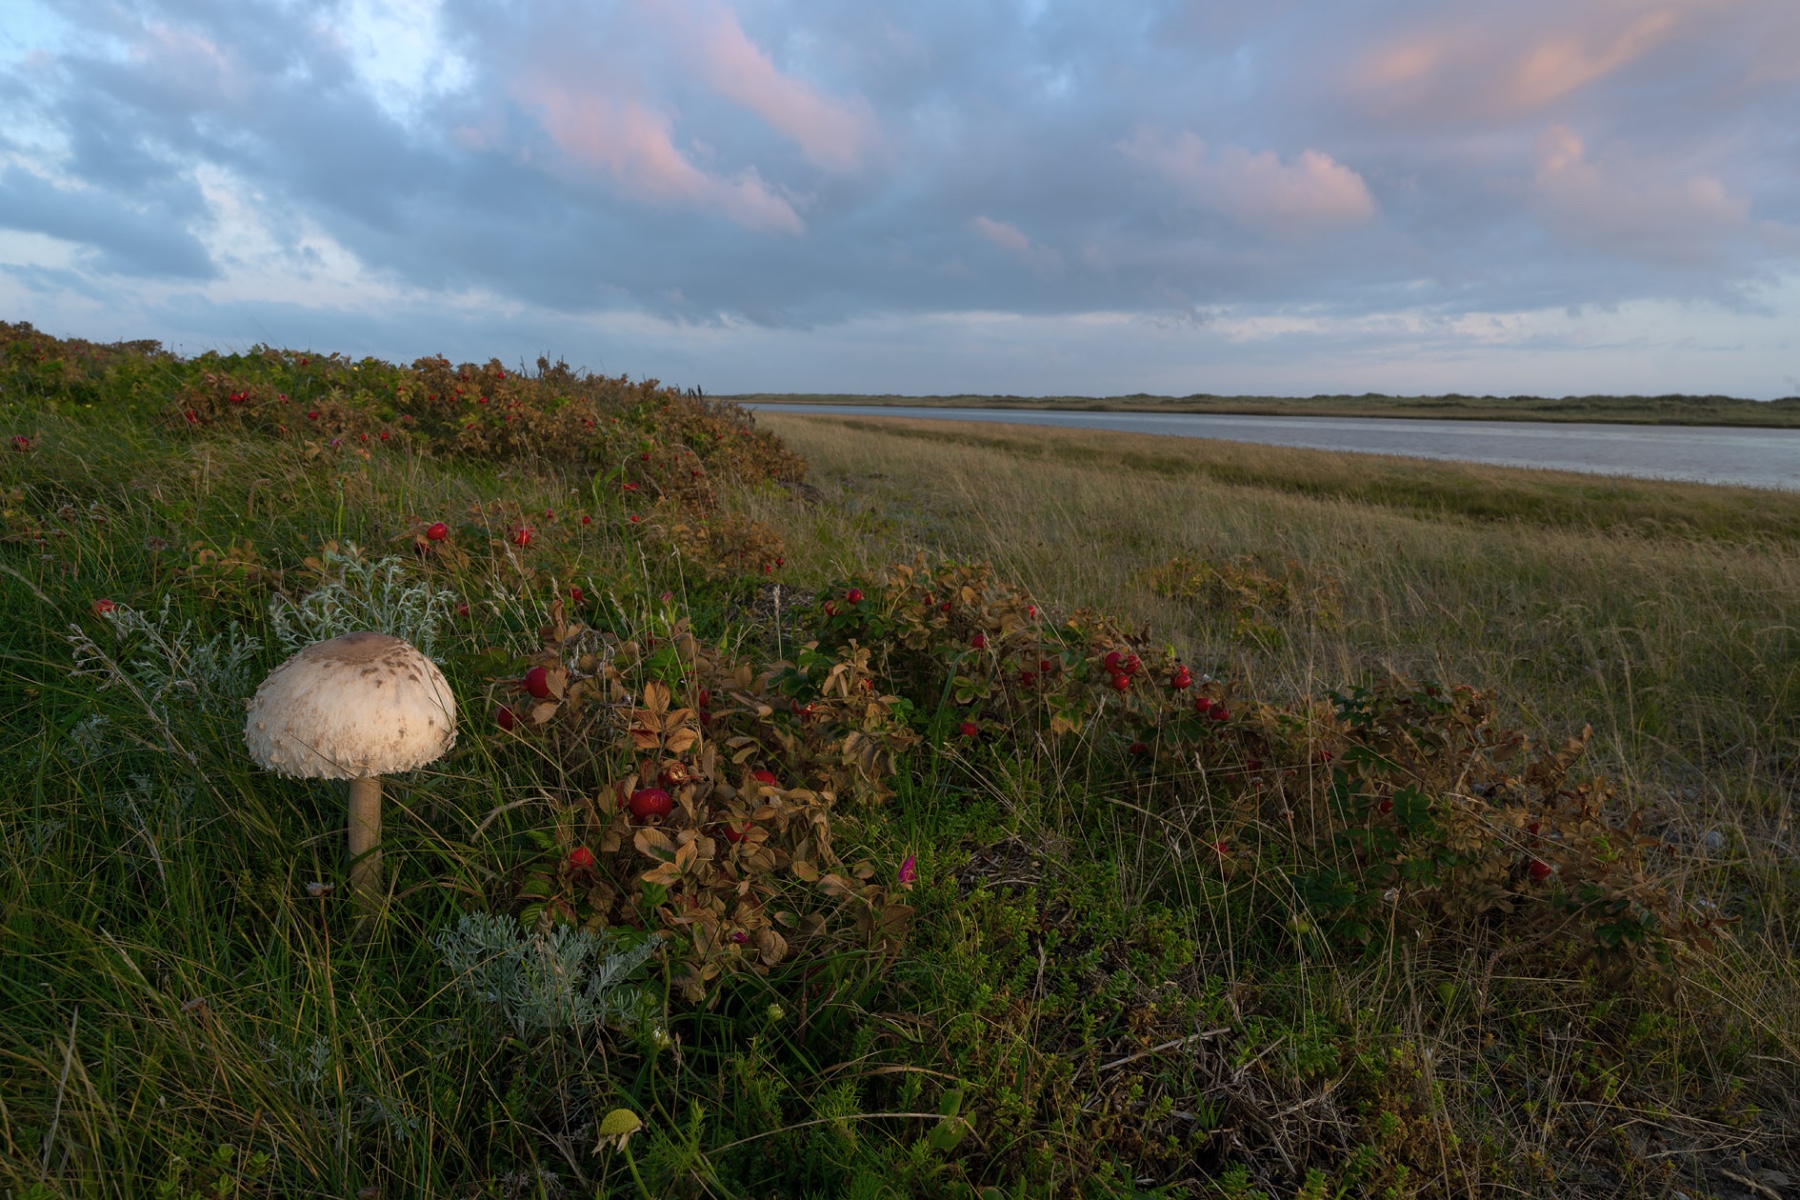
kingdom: Fungi
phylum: Basidiomycota
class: Agaricomycetes
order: Agaricales
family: Agaricaceae
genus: Macrolepiota
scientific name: Macrolepiota procera
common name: stor kæmpeparasolhat
